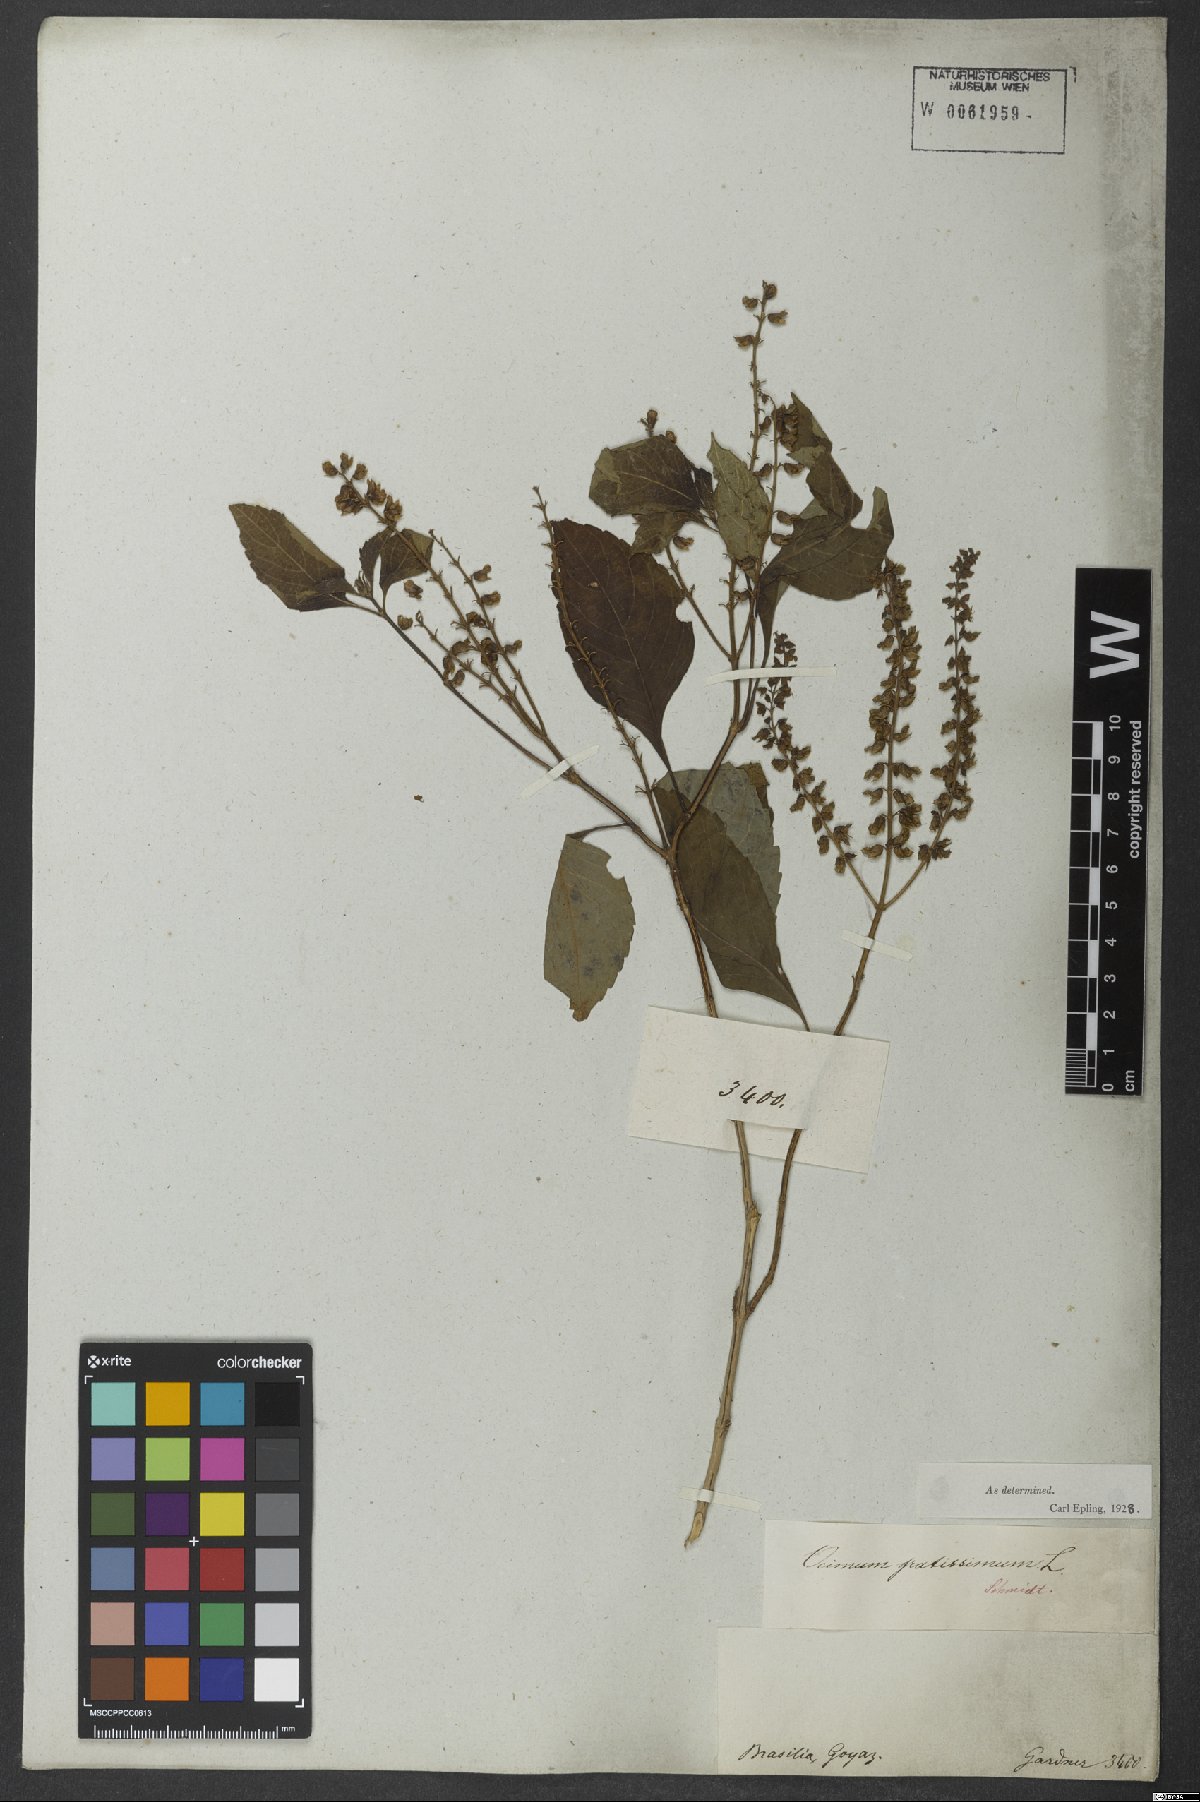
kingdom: Plantae
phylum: Tracheophyta
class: Magnoliopsida
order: Lamiales
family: Lamiaceae
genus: Ocimum
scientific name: Ocimum gratissimum
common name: African basil
